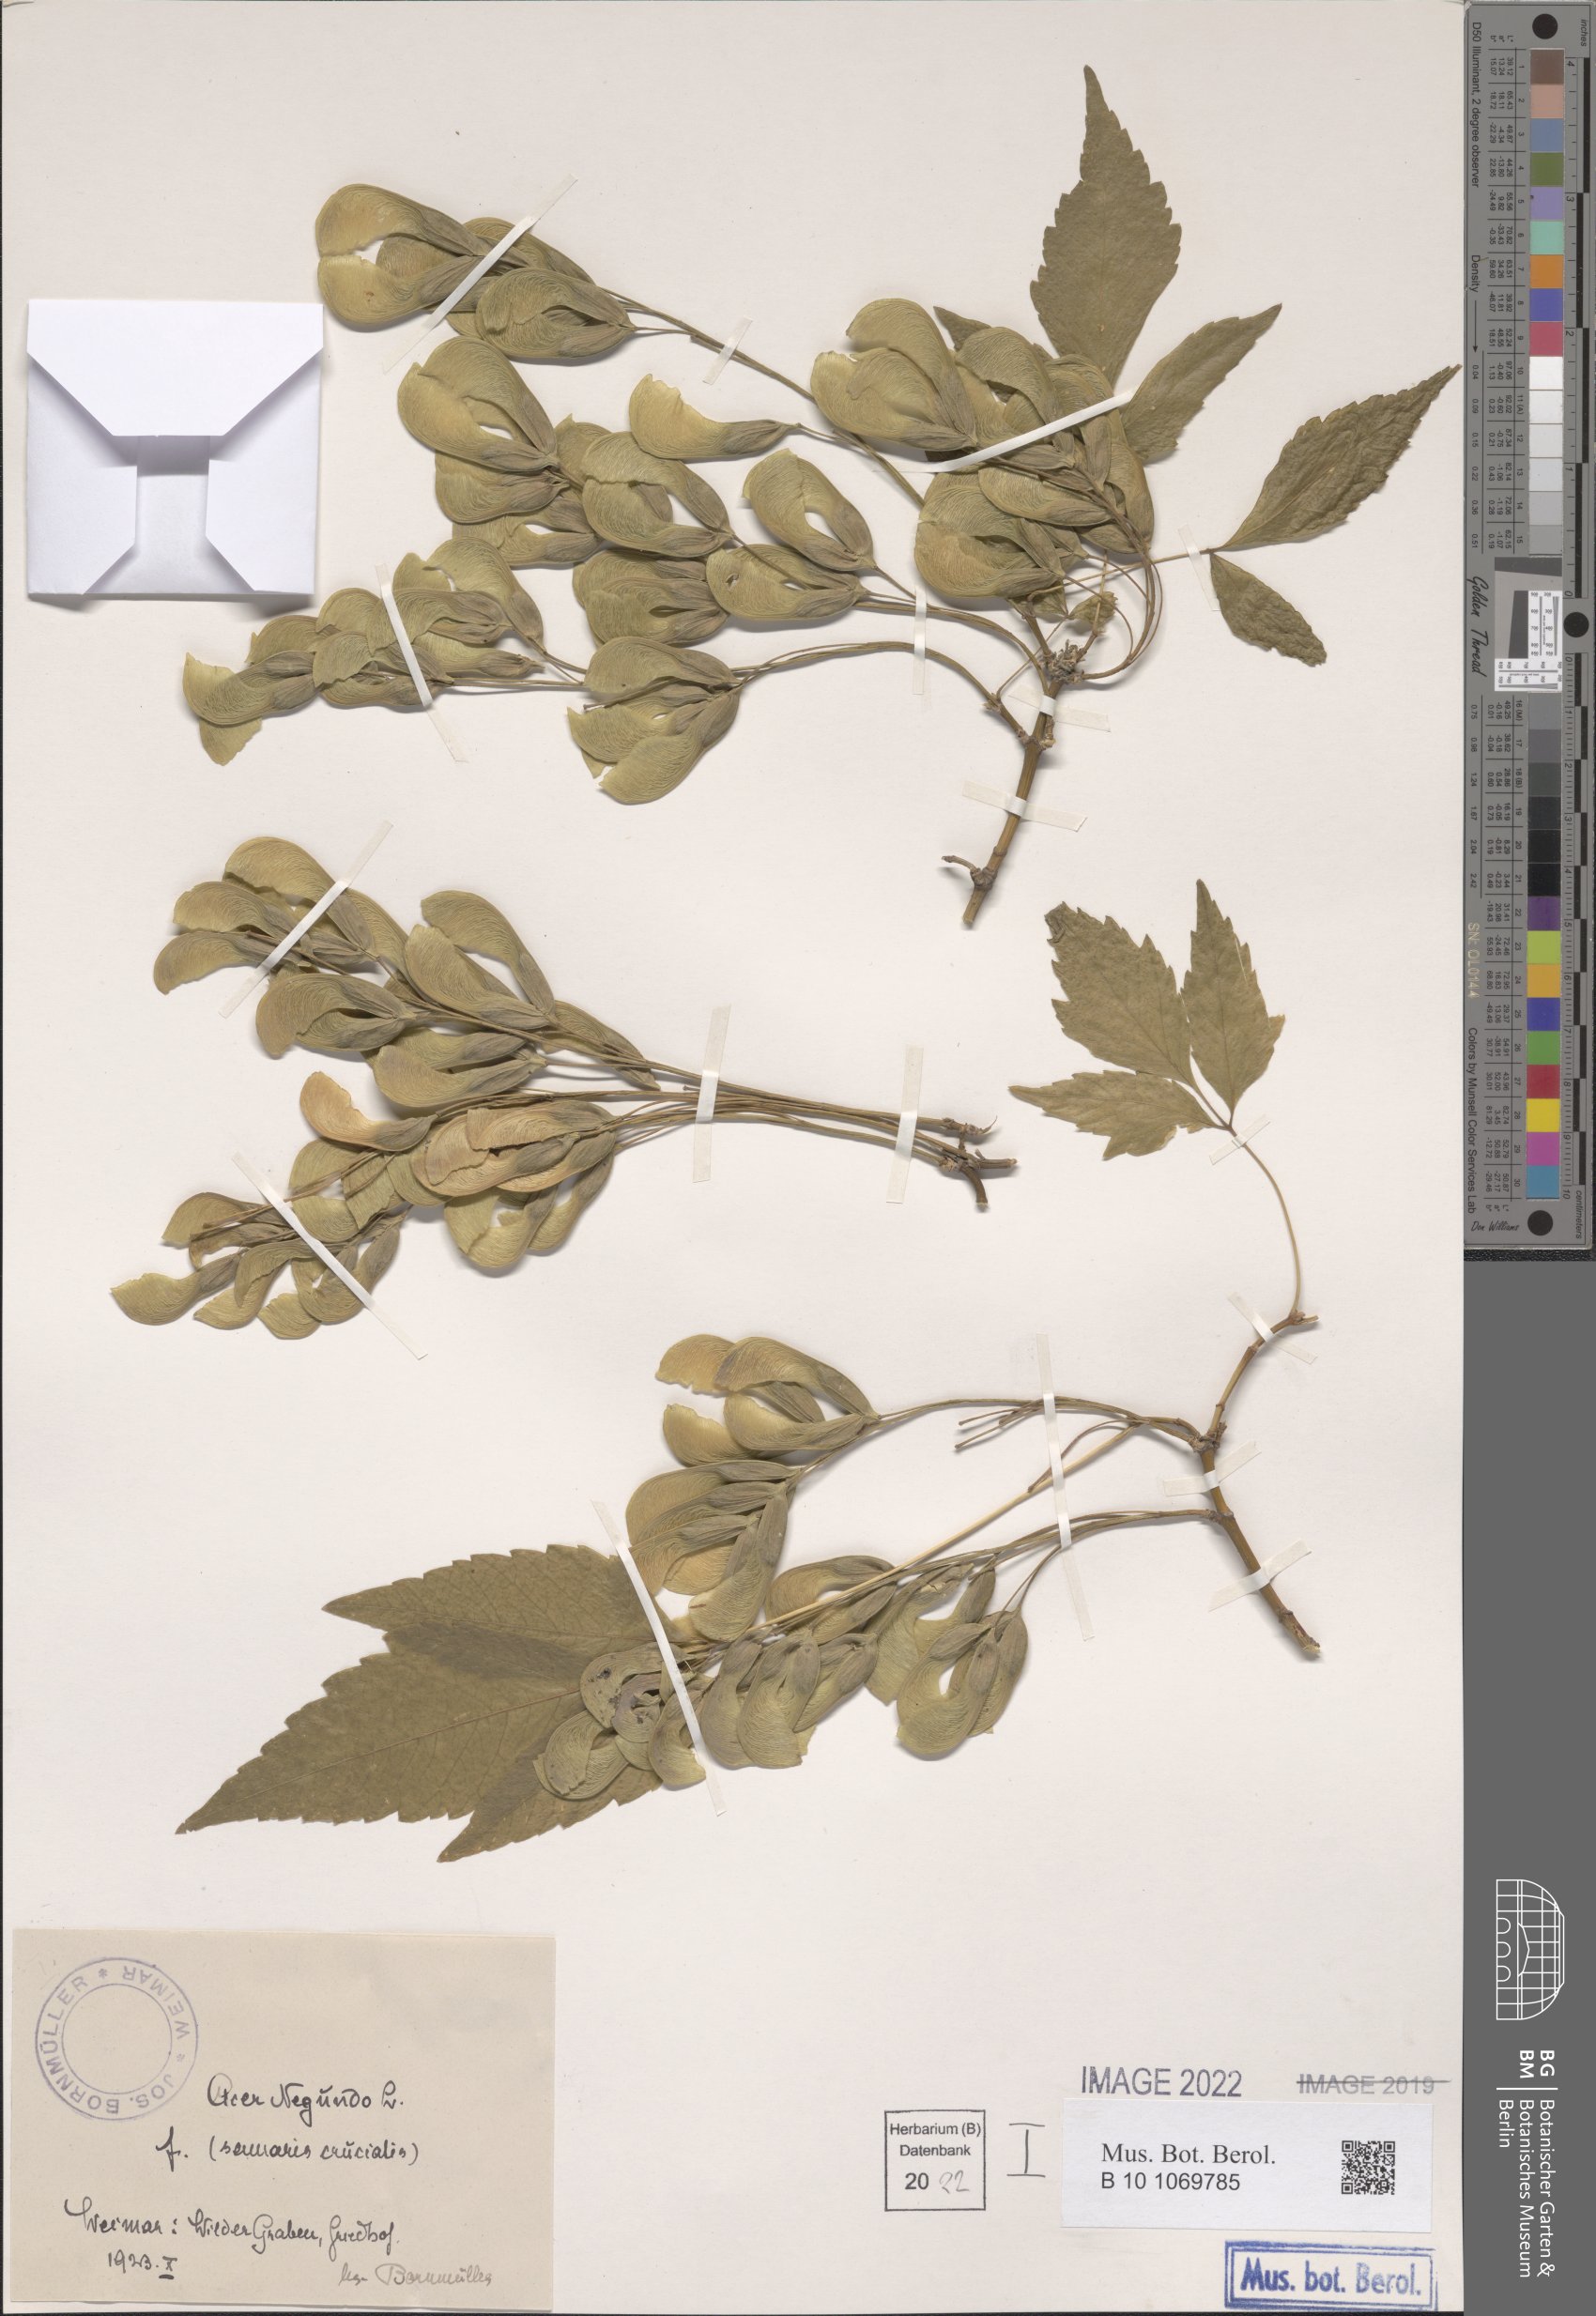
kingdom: Plantae
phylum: Tracheophyta
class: Magnoliopsida
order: Sapindales
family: Sapindaceae
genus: Acer
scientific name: Acer negundo
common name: Ashleaf maple
